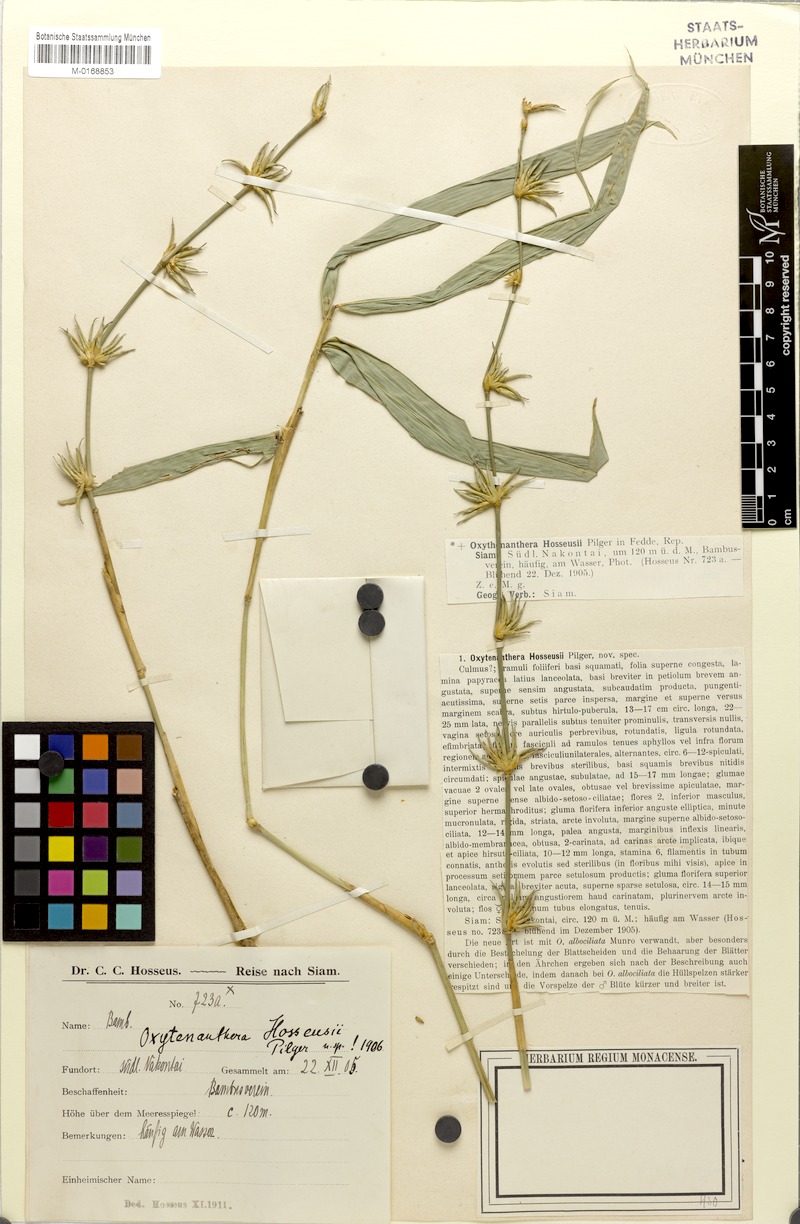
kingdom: Plantae
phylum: Tracheophyta
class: Liliopsida
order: Poales
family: Poaceae
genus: Gigantochloa
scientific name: Gigantochloa hosseusii
